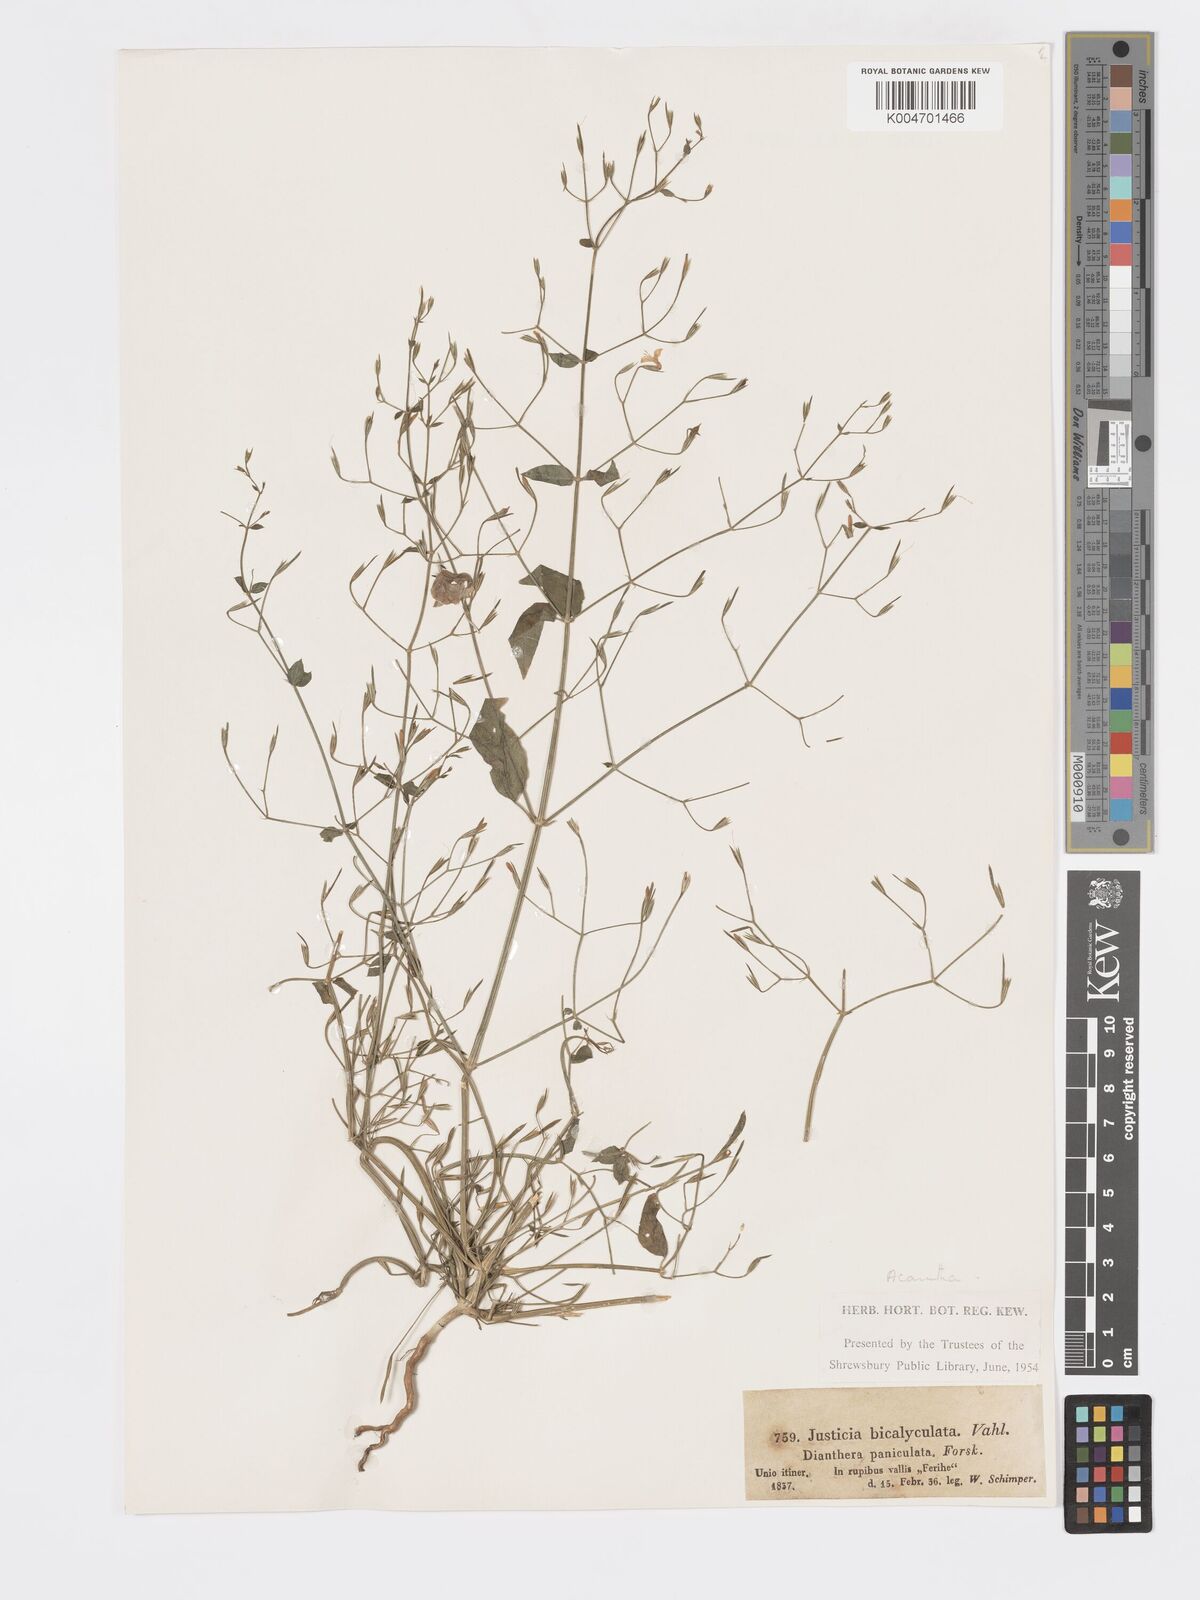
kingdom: Plantae
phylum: Tracheophyta
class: Magnoliopsida
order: Lamiales
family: Acanthaceae
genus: Dicliptera
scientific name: Dicliptera paniculata
